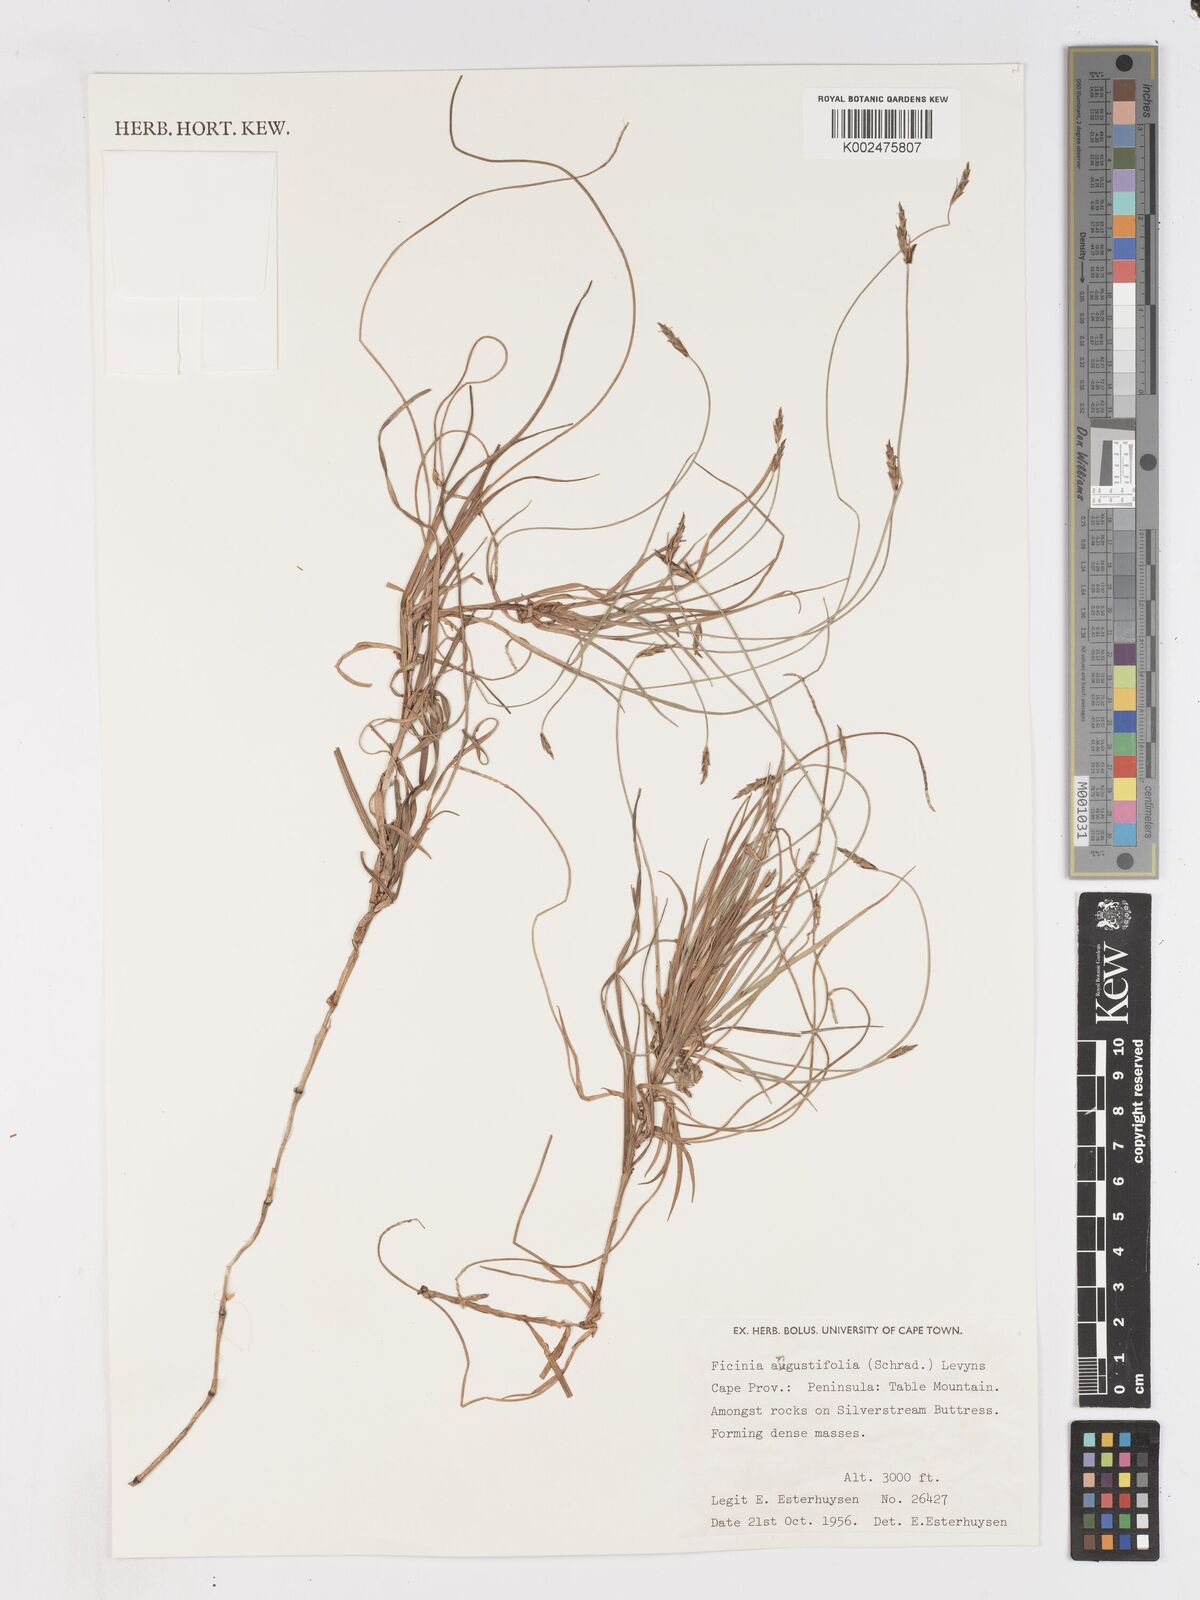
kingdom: Plantae
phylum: Tracheophyta
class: Liliopsida
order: Poales
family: Cyperaceae
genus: Ficinia
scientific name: Ficinia angustifolia
